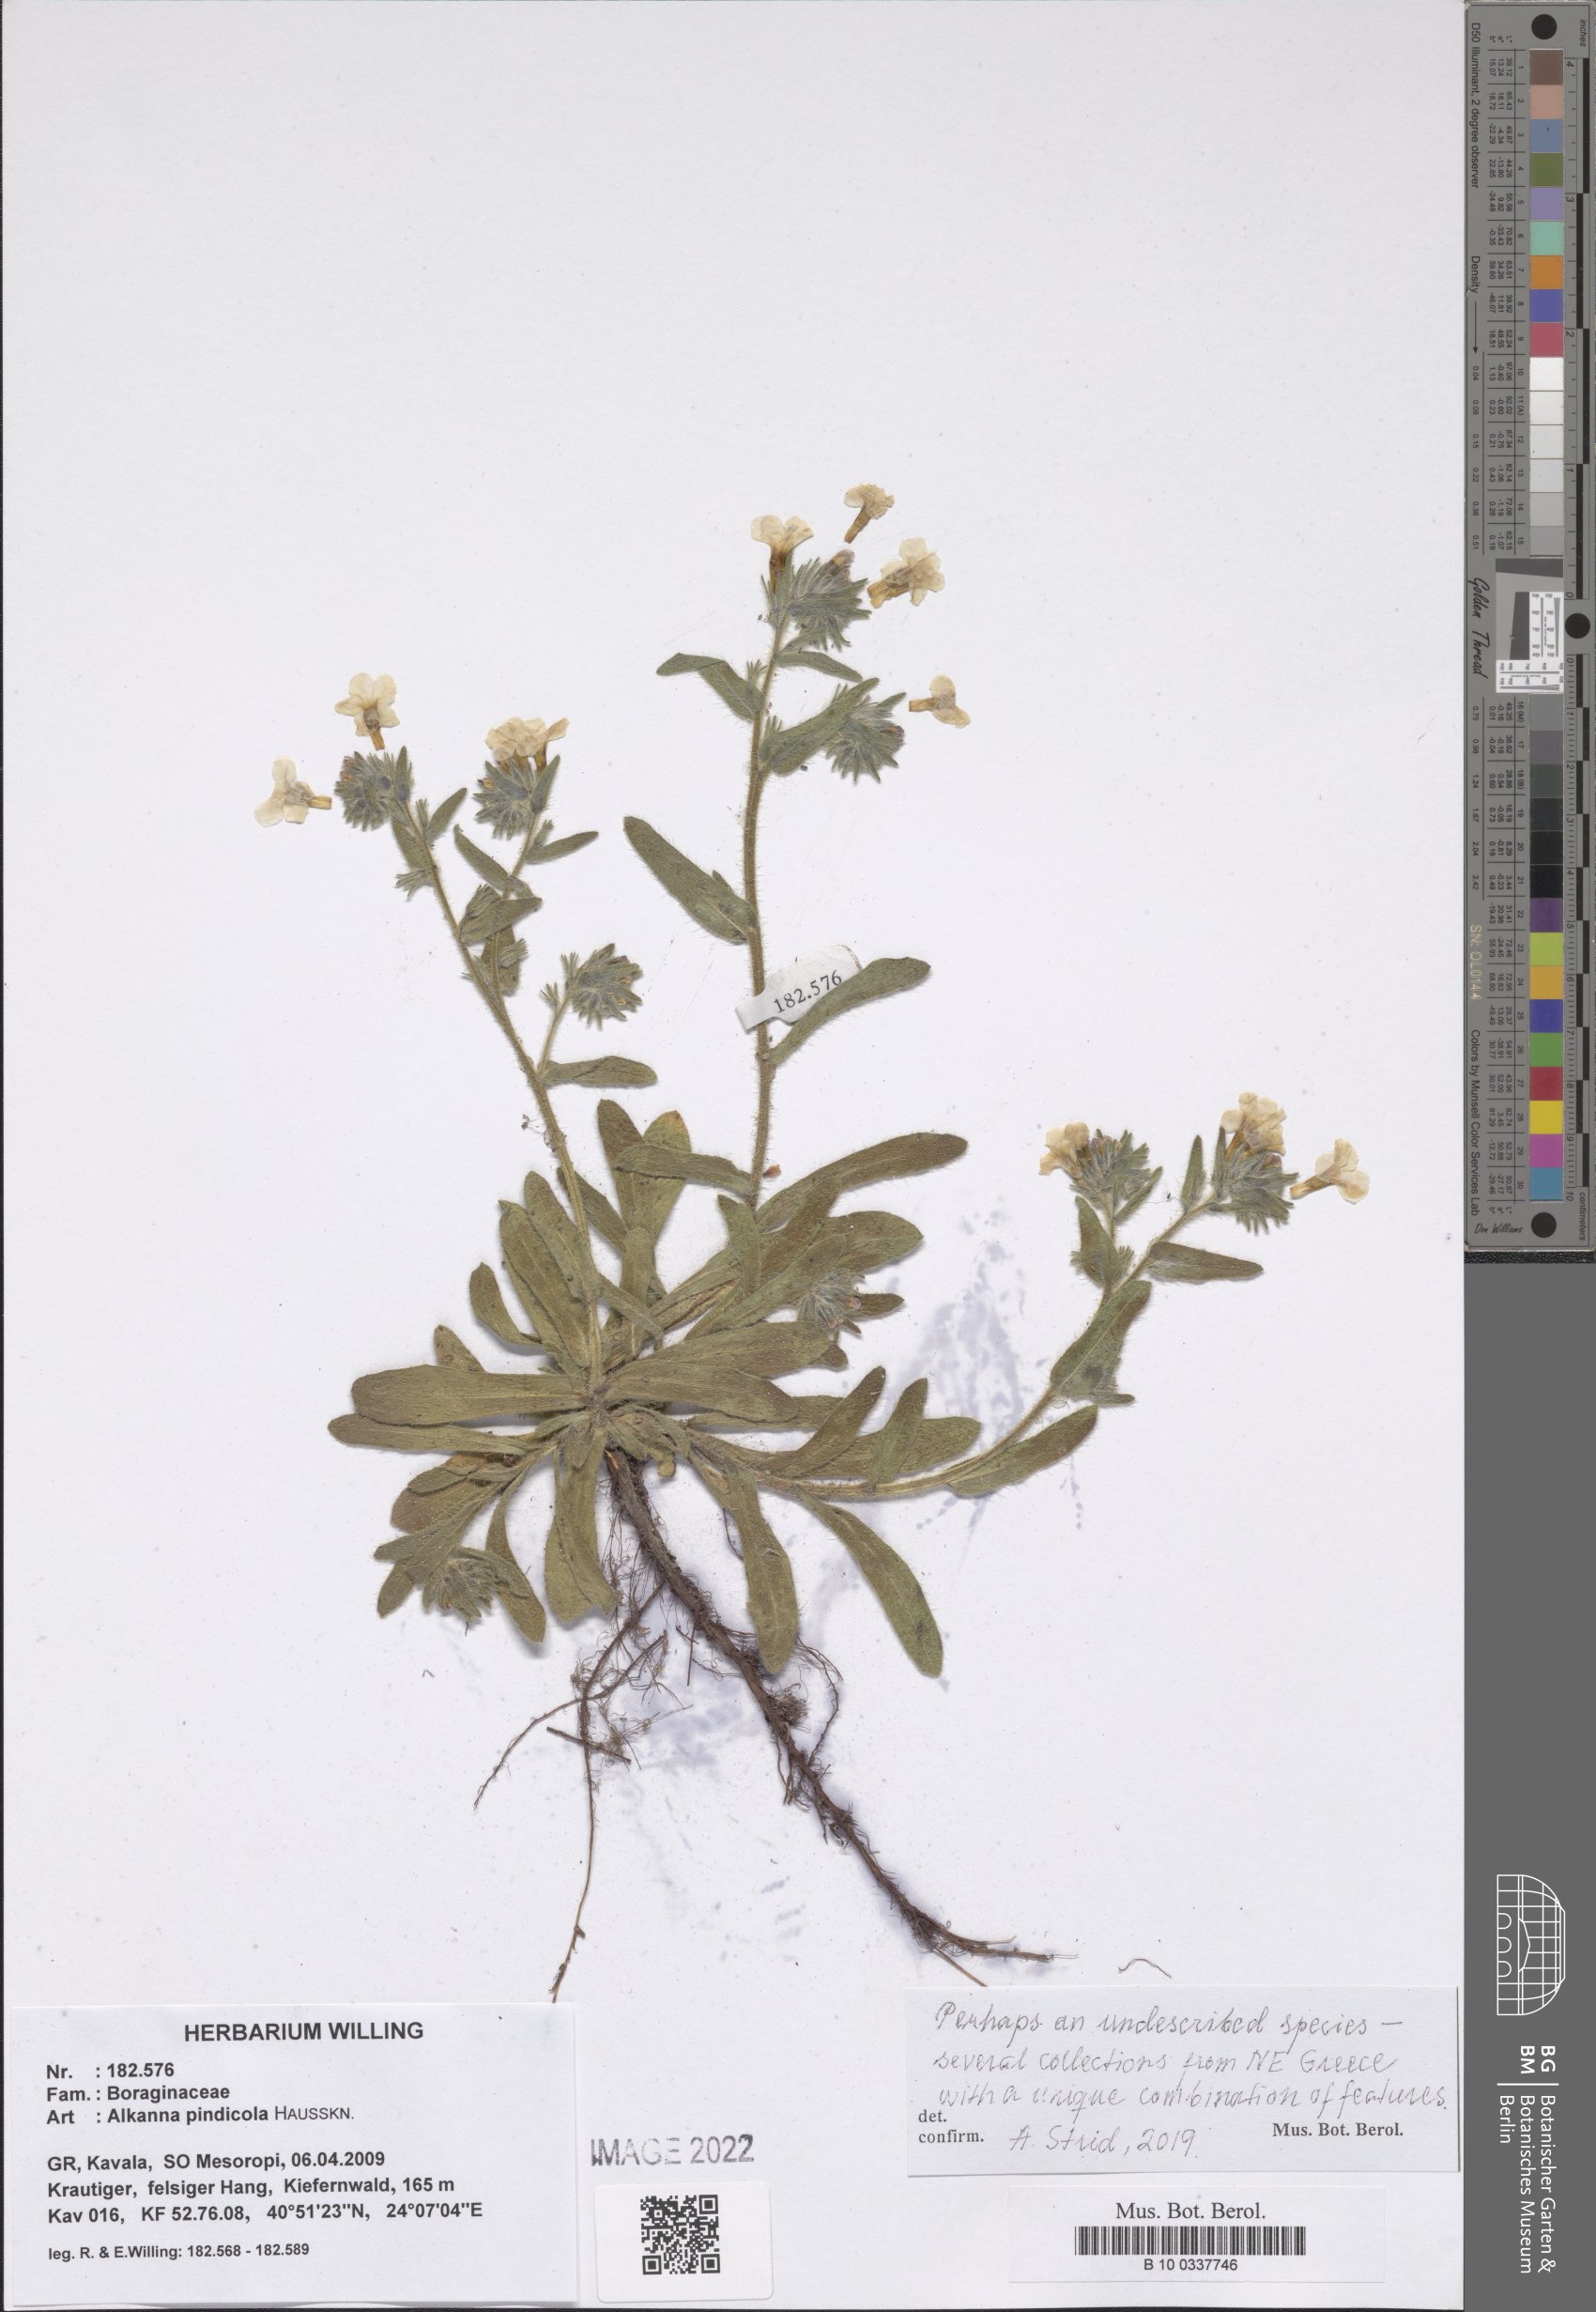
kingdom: Plantae
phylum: Tracheophyta
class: Magnoliopsida
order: Boraginales
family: Boraginaceae
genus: Alkanna
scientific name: Alkanna pindicola
